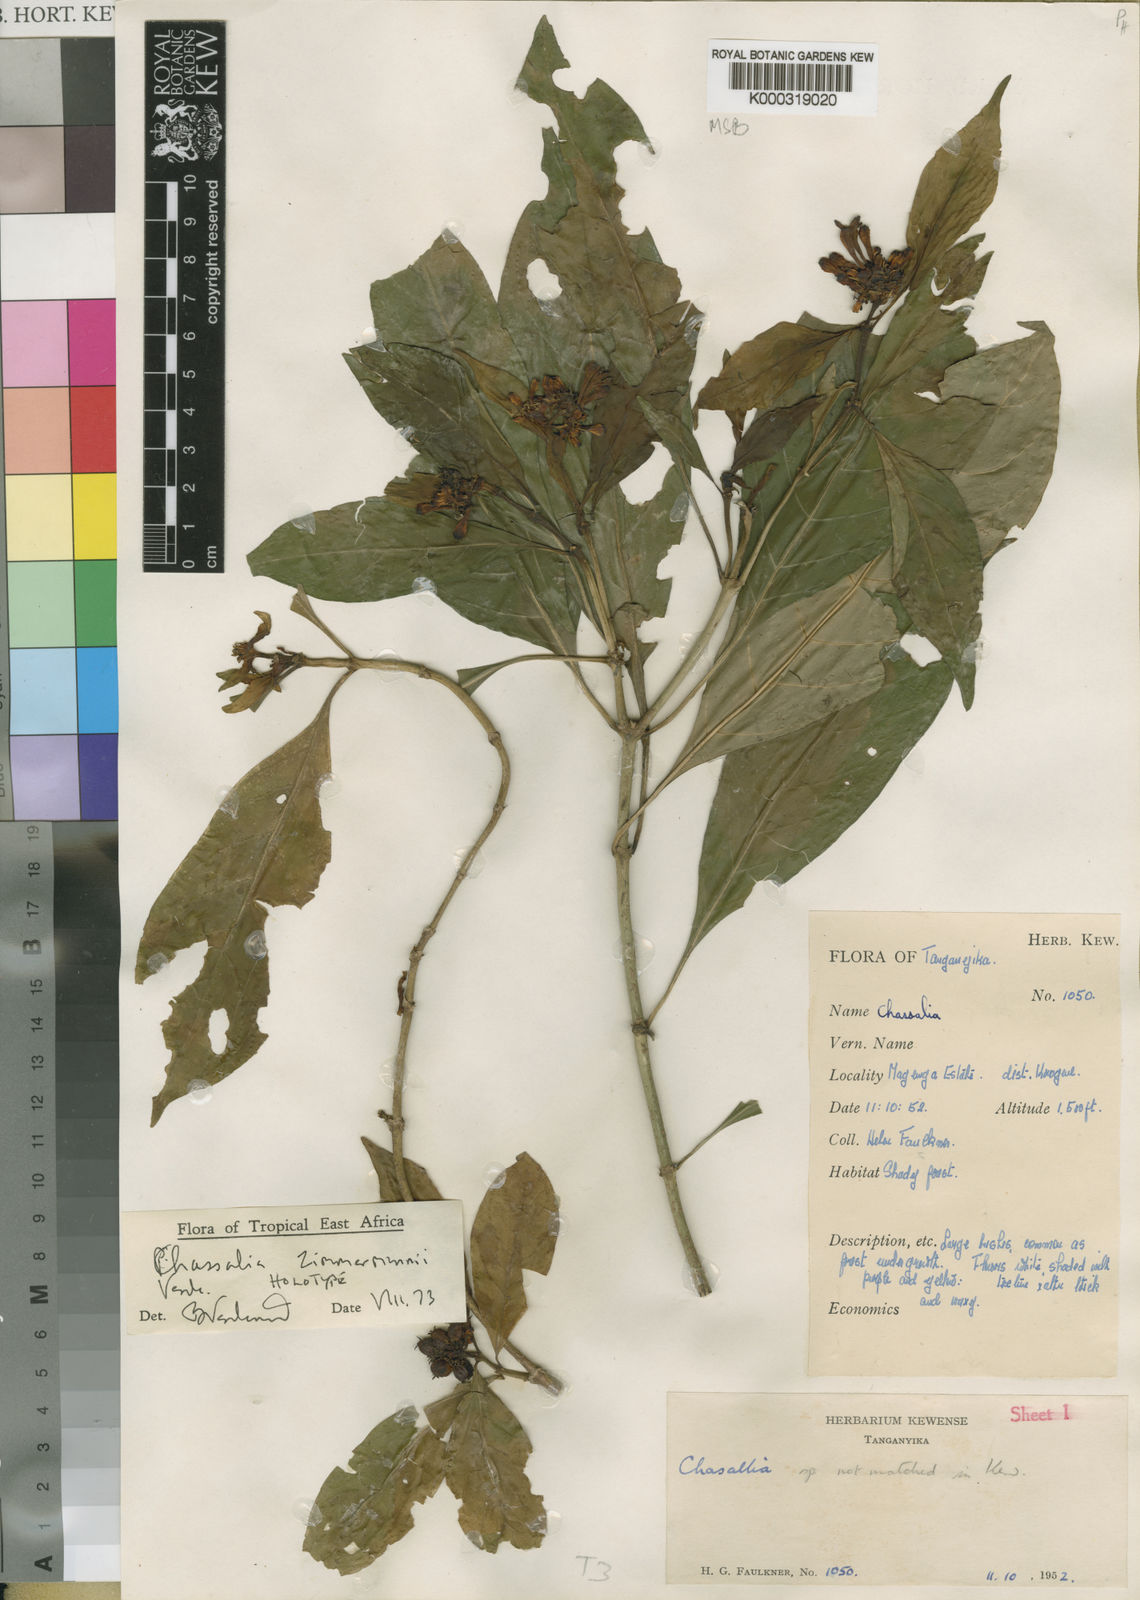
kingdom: Plantae
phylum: Tracheophyta
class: Magnoliopsida
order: Gentianales
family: Rubiaceae
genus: Chassalia
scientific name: Chassalia zimmermannii
